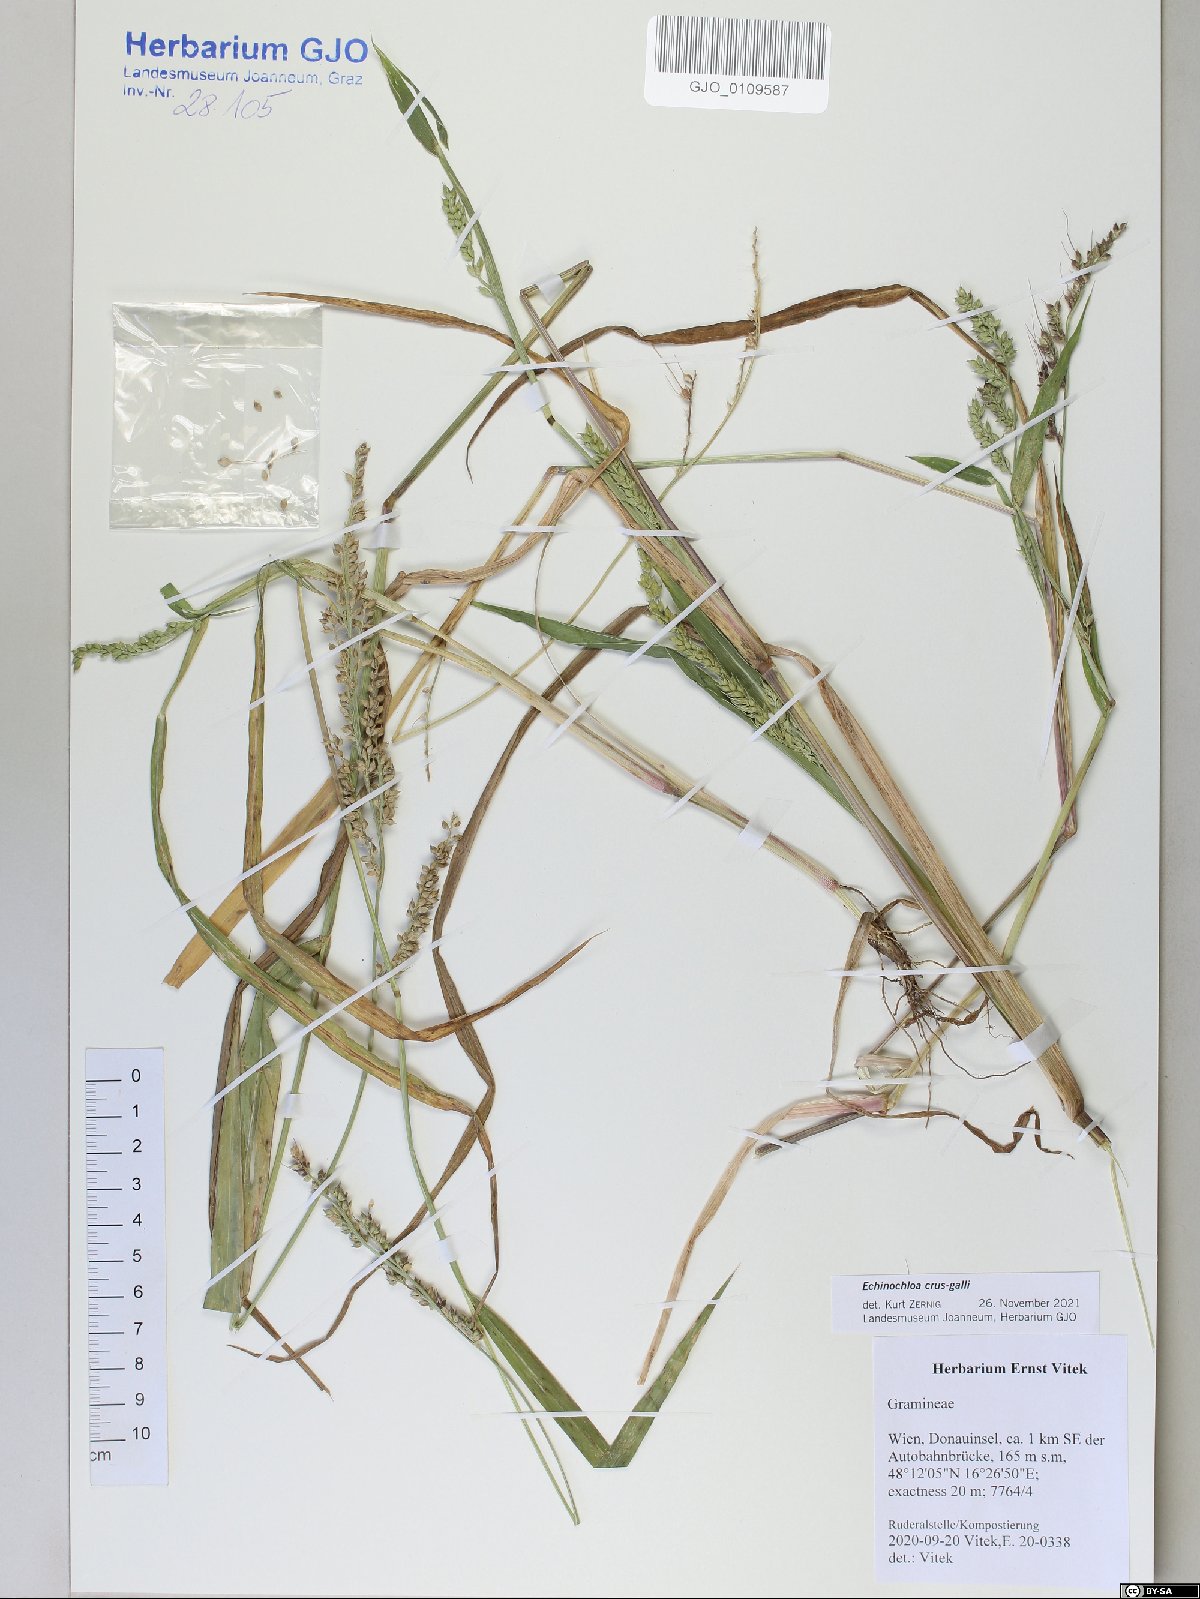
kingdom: Plantae
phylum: Tracheophyta
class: Liliopsida
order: Poales
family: Poaceae
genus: Echinochloa
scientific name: Echinochloa crus-galli
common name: Cockspur
